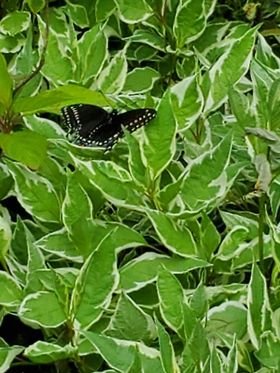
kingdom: Animalia
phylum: Arthropoda
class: Insecta
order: Lepidoptera
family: Papilionidae
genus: Papilio
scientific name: Papilio polyxenes
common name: Black Swallowtail
